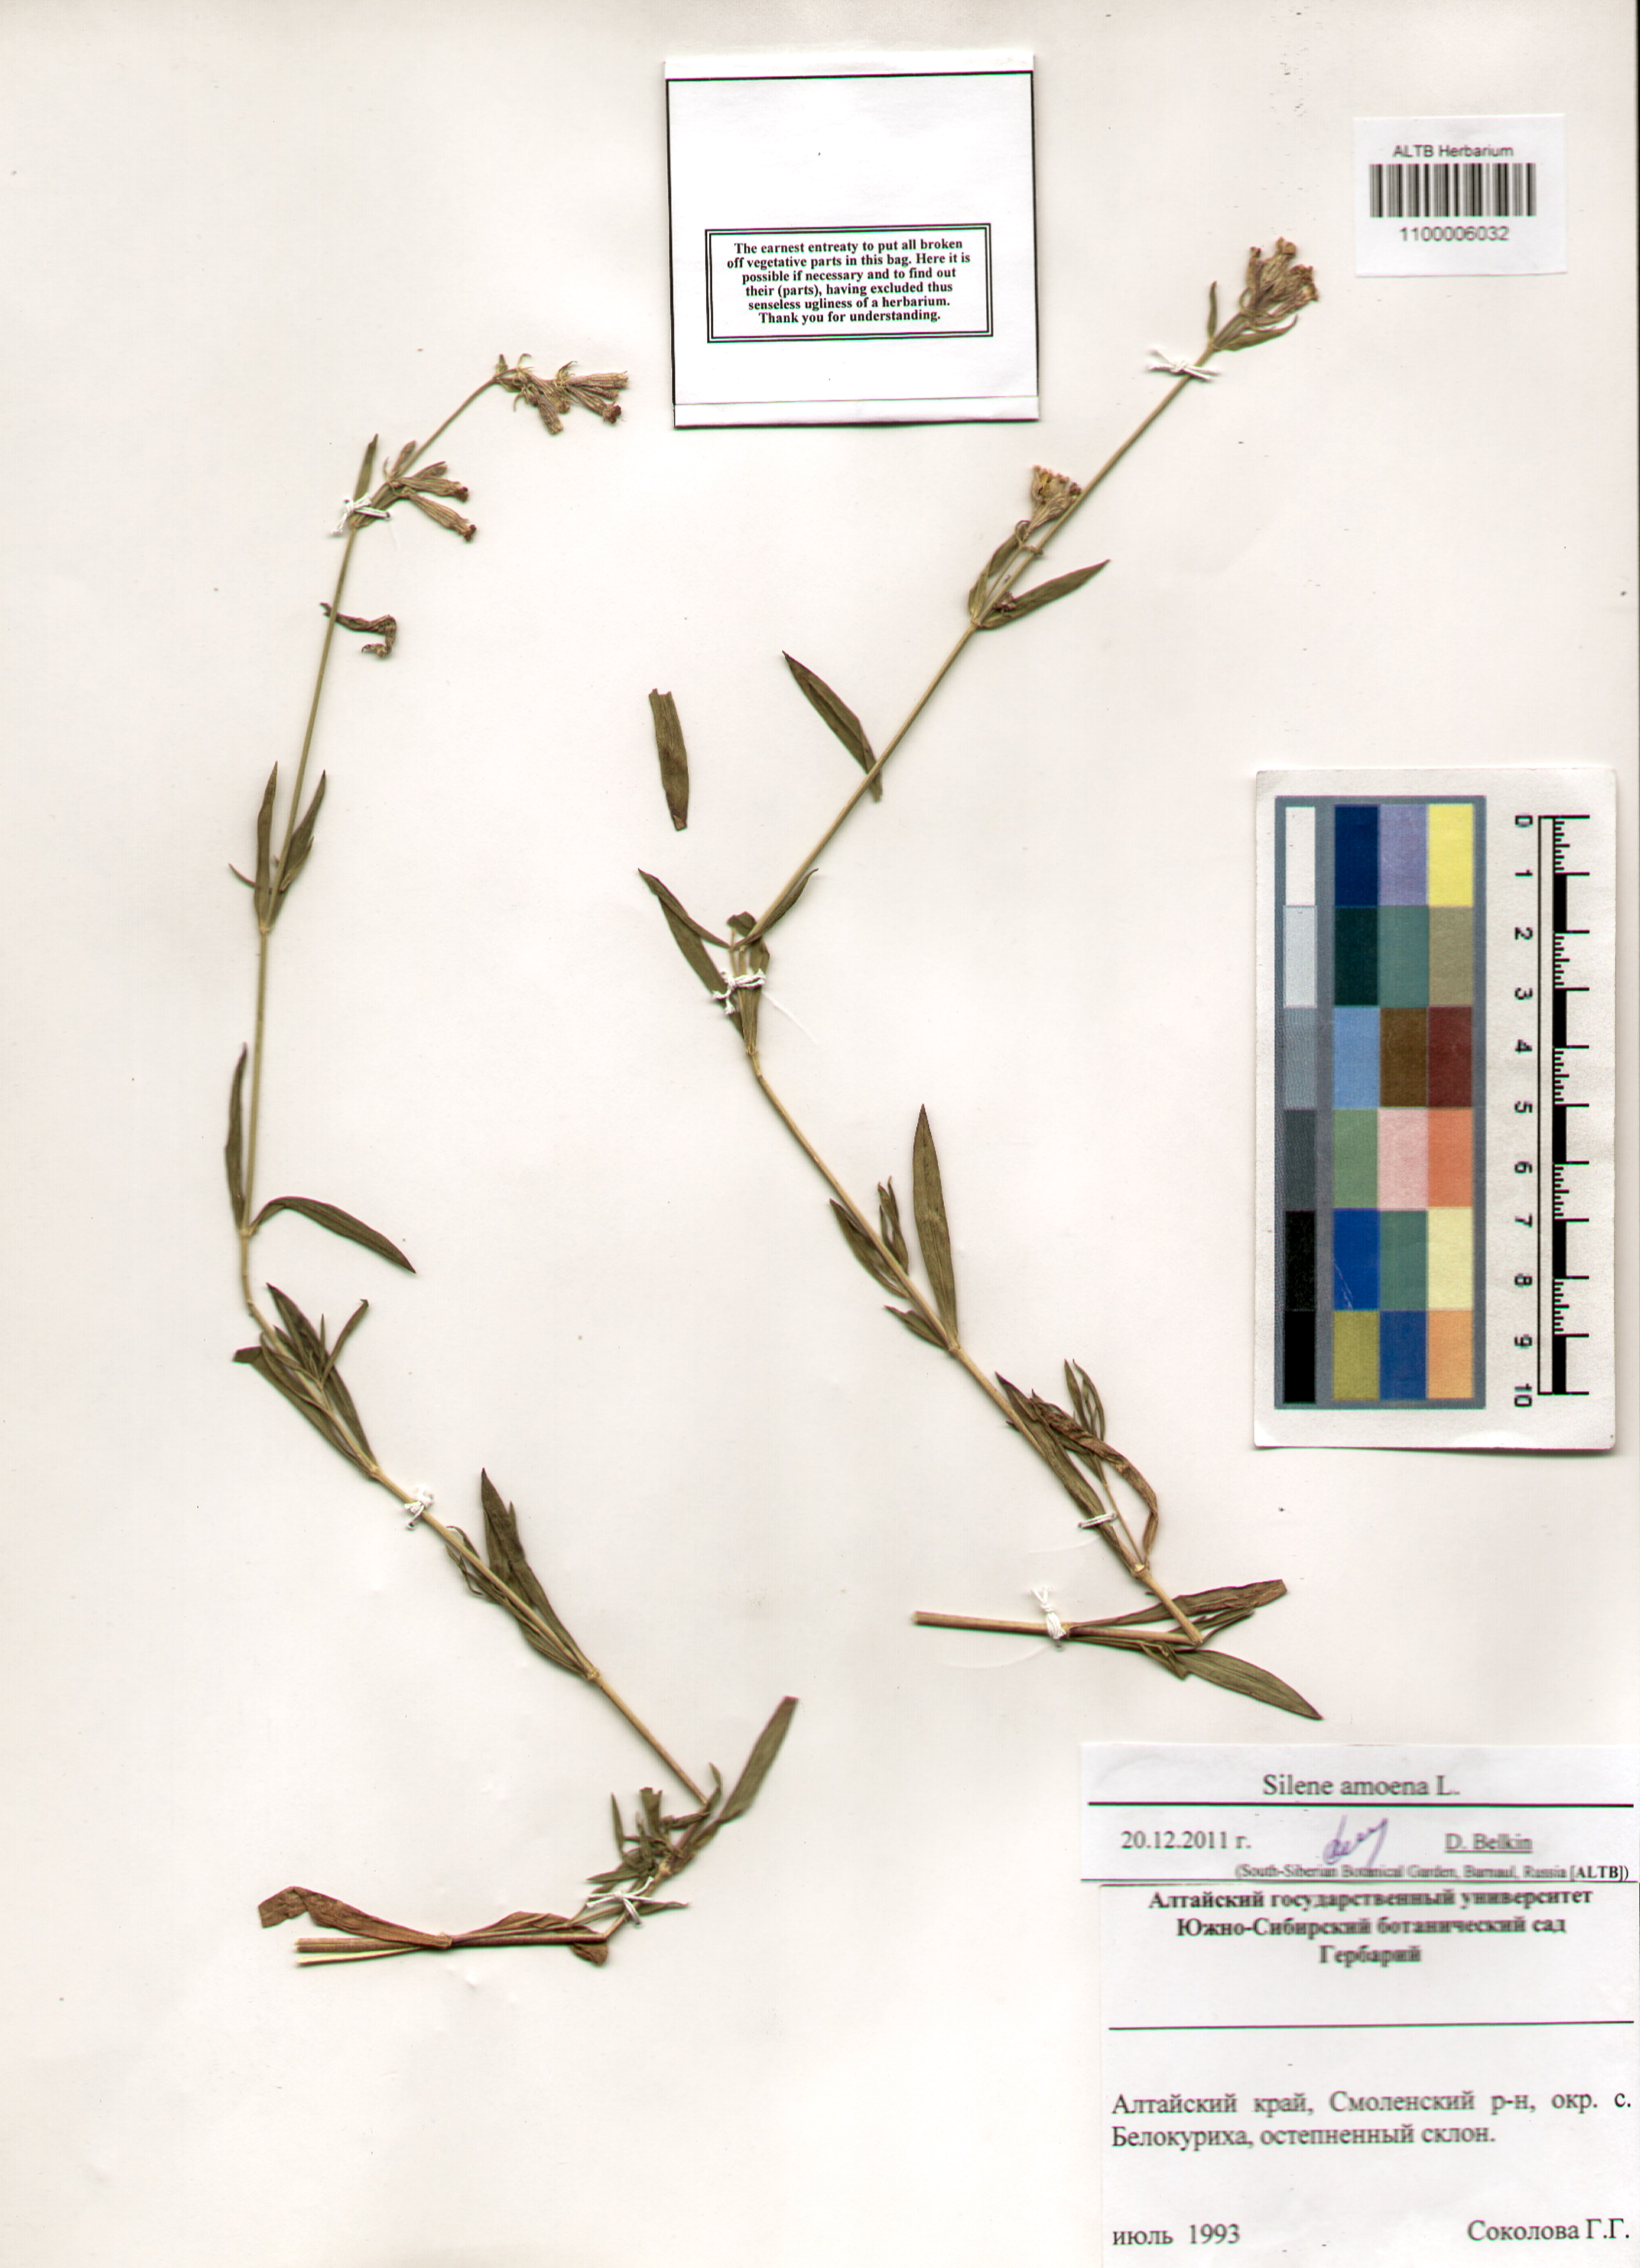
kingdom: Plantae
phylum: Tracheophyta
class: Magnoliopsida
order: Caryophyllales
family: Caryophyllaceae
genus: Silene
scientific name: Silene amoena
